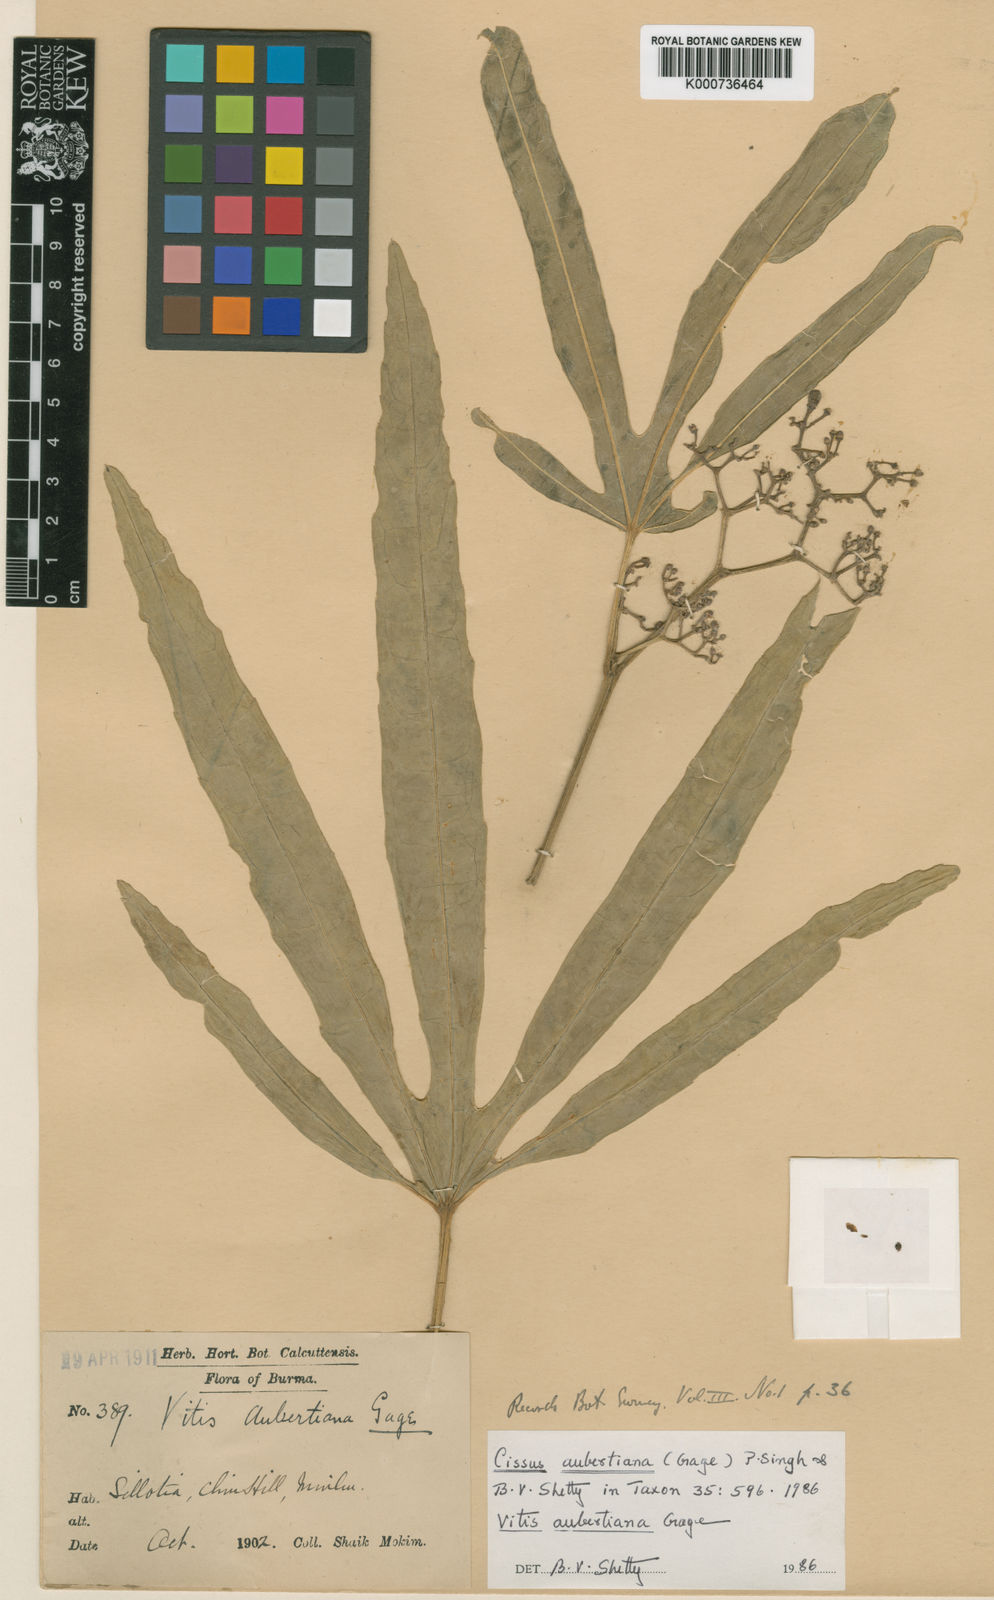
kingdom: Plantae
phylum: Tracheophyta
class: Magnoliopsida
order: Vitales
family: Vitaceae
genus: Cissus
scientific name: Cissus aubertiana
